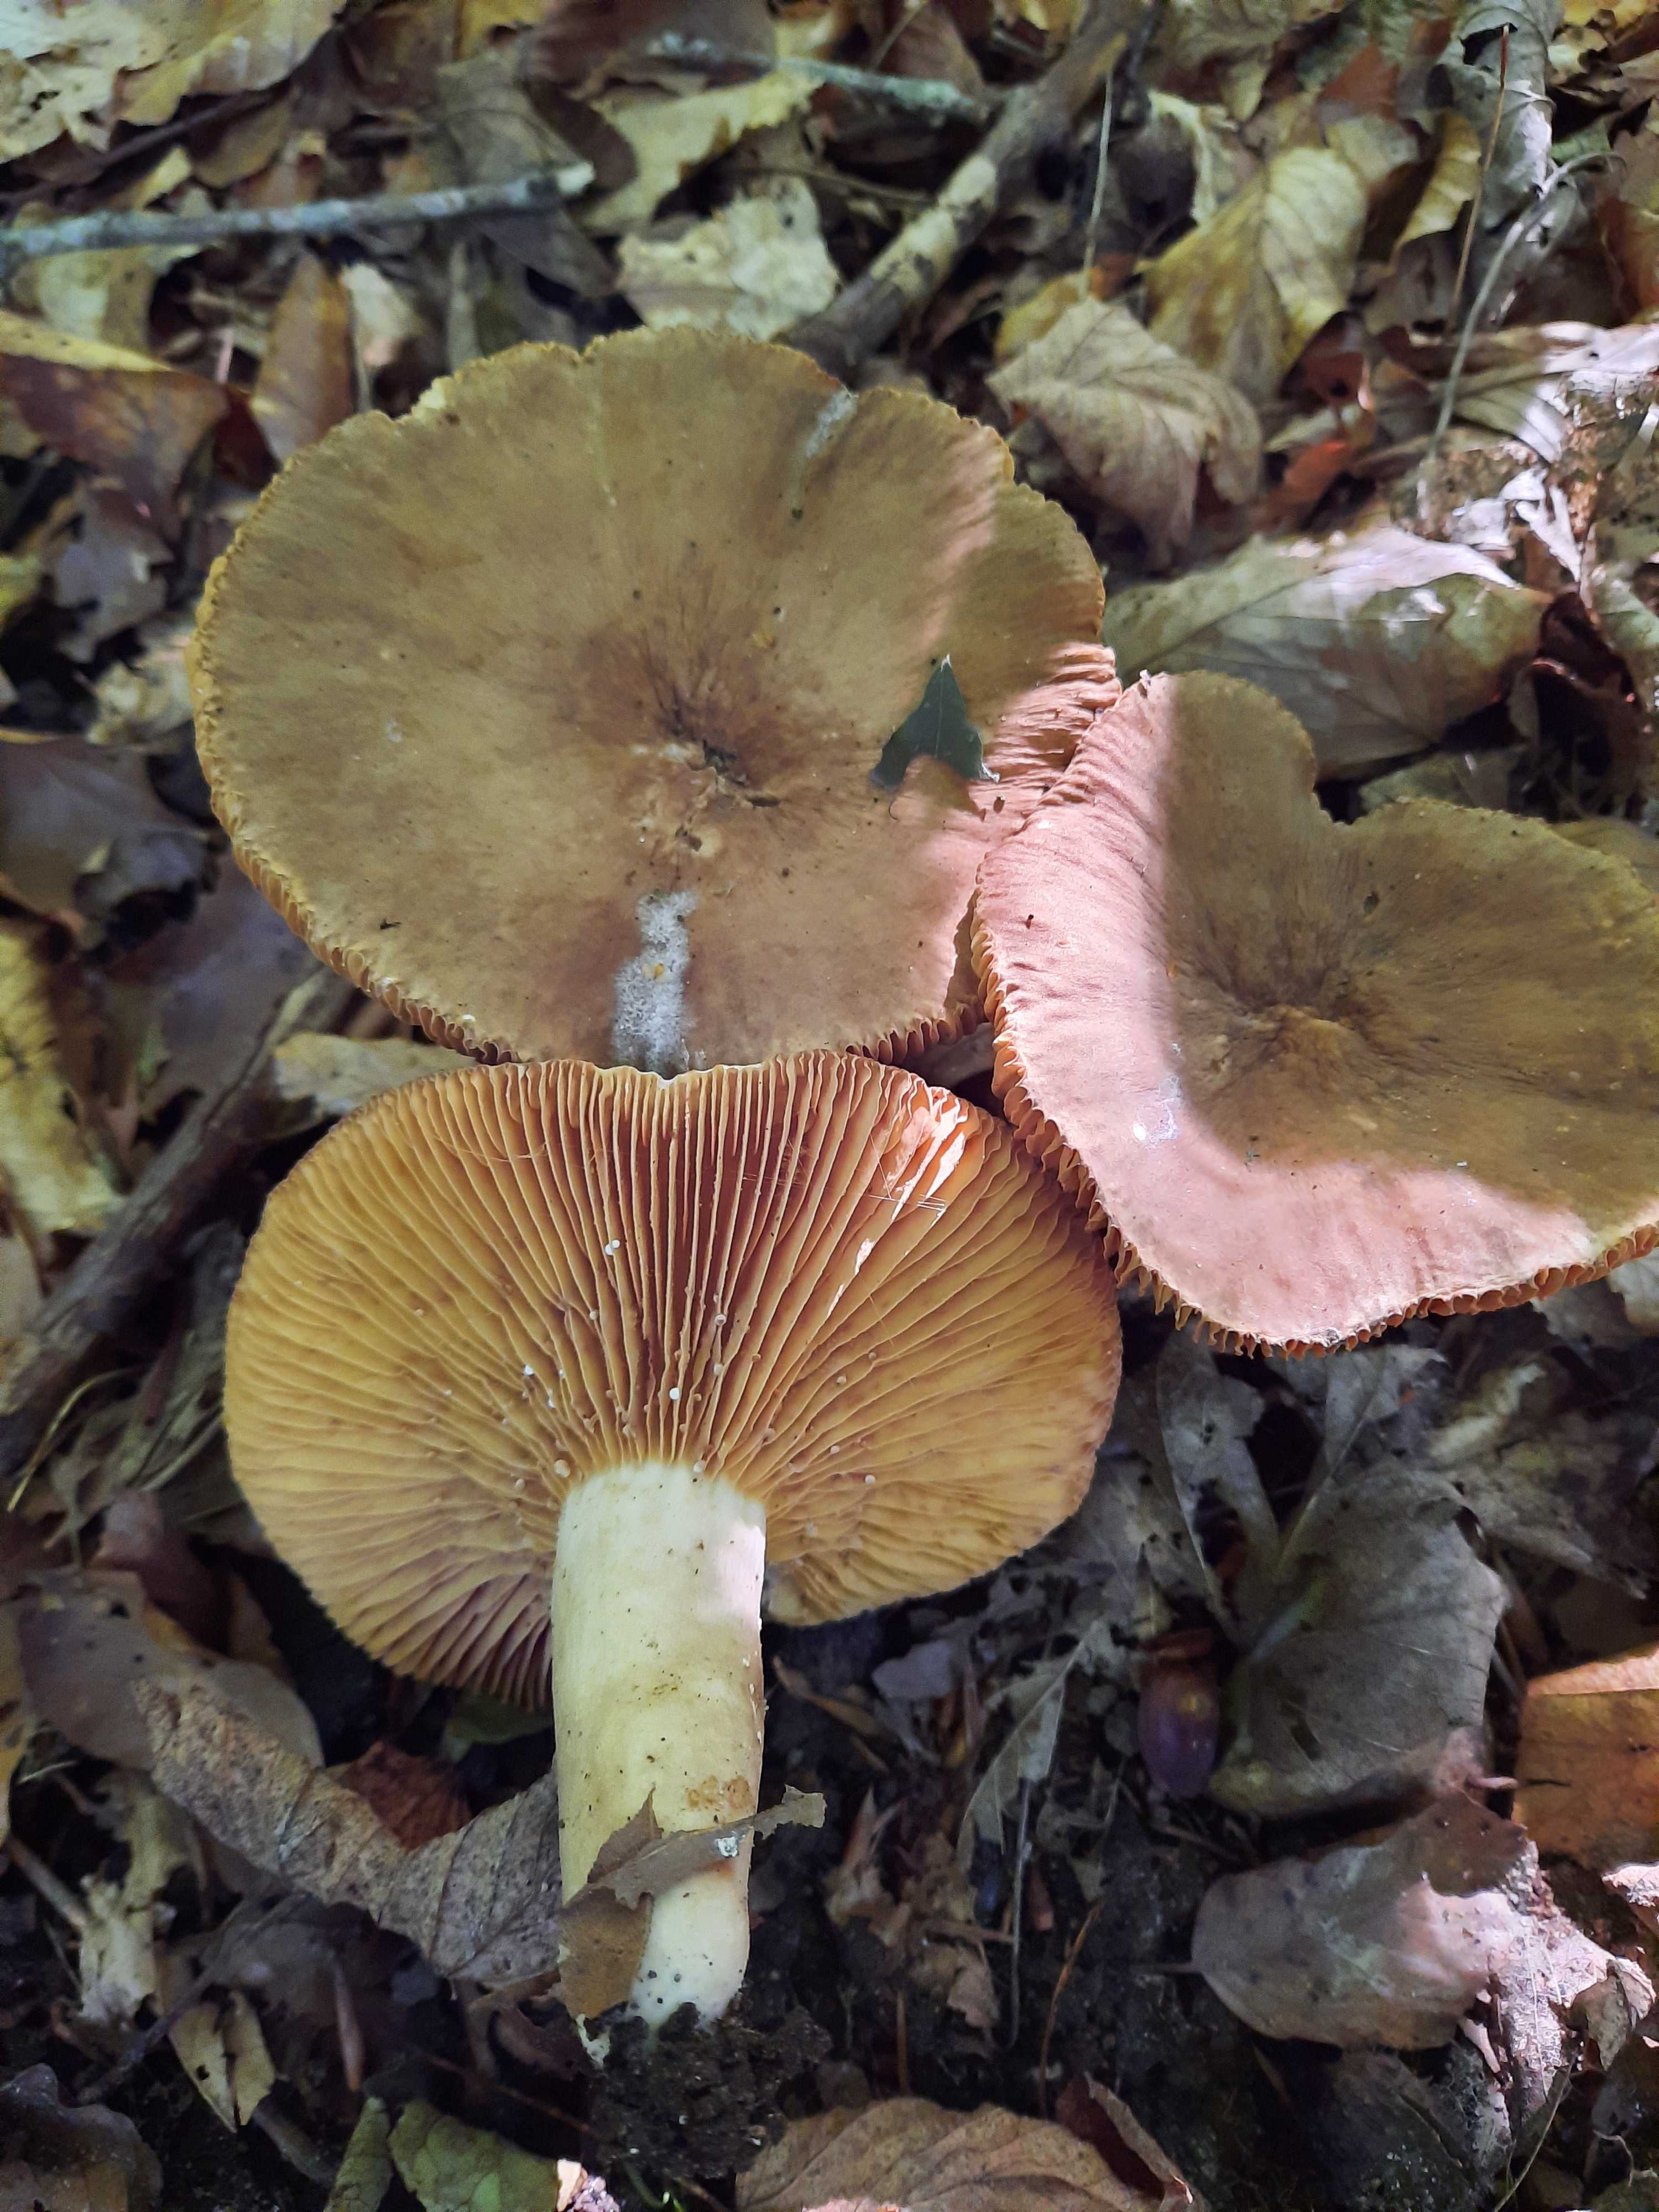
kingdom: Fungi
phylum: Basidiomycota
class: Agaricomycetes
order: Russulales
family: Russulaceae
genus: Lactarius
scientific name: Lactarius pterosporus
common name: vingesporet mælkehat
